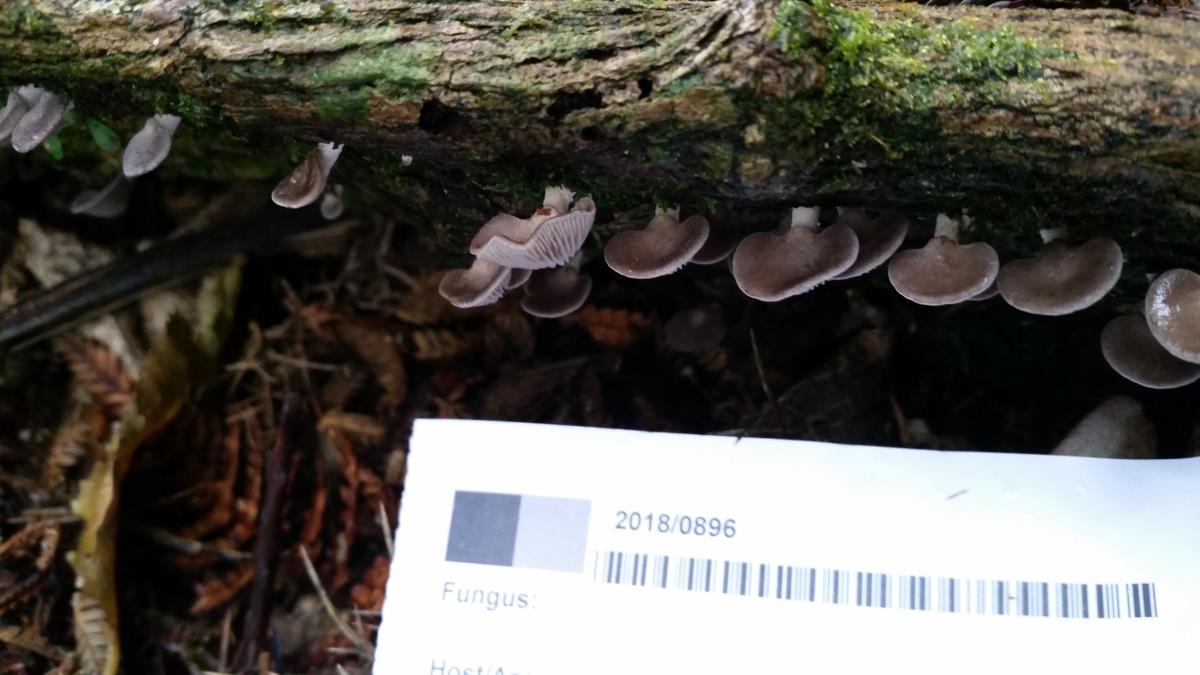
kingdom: Fungi
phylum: Basidiomycota
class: Agaricomycetes
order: Agaricales
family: Mycenaceae
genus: Panellus
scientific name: Panellus longinquus
